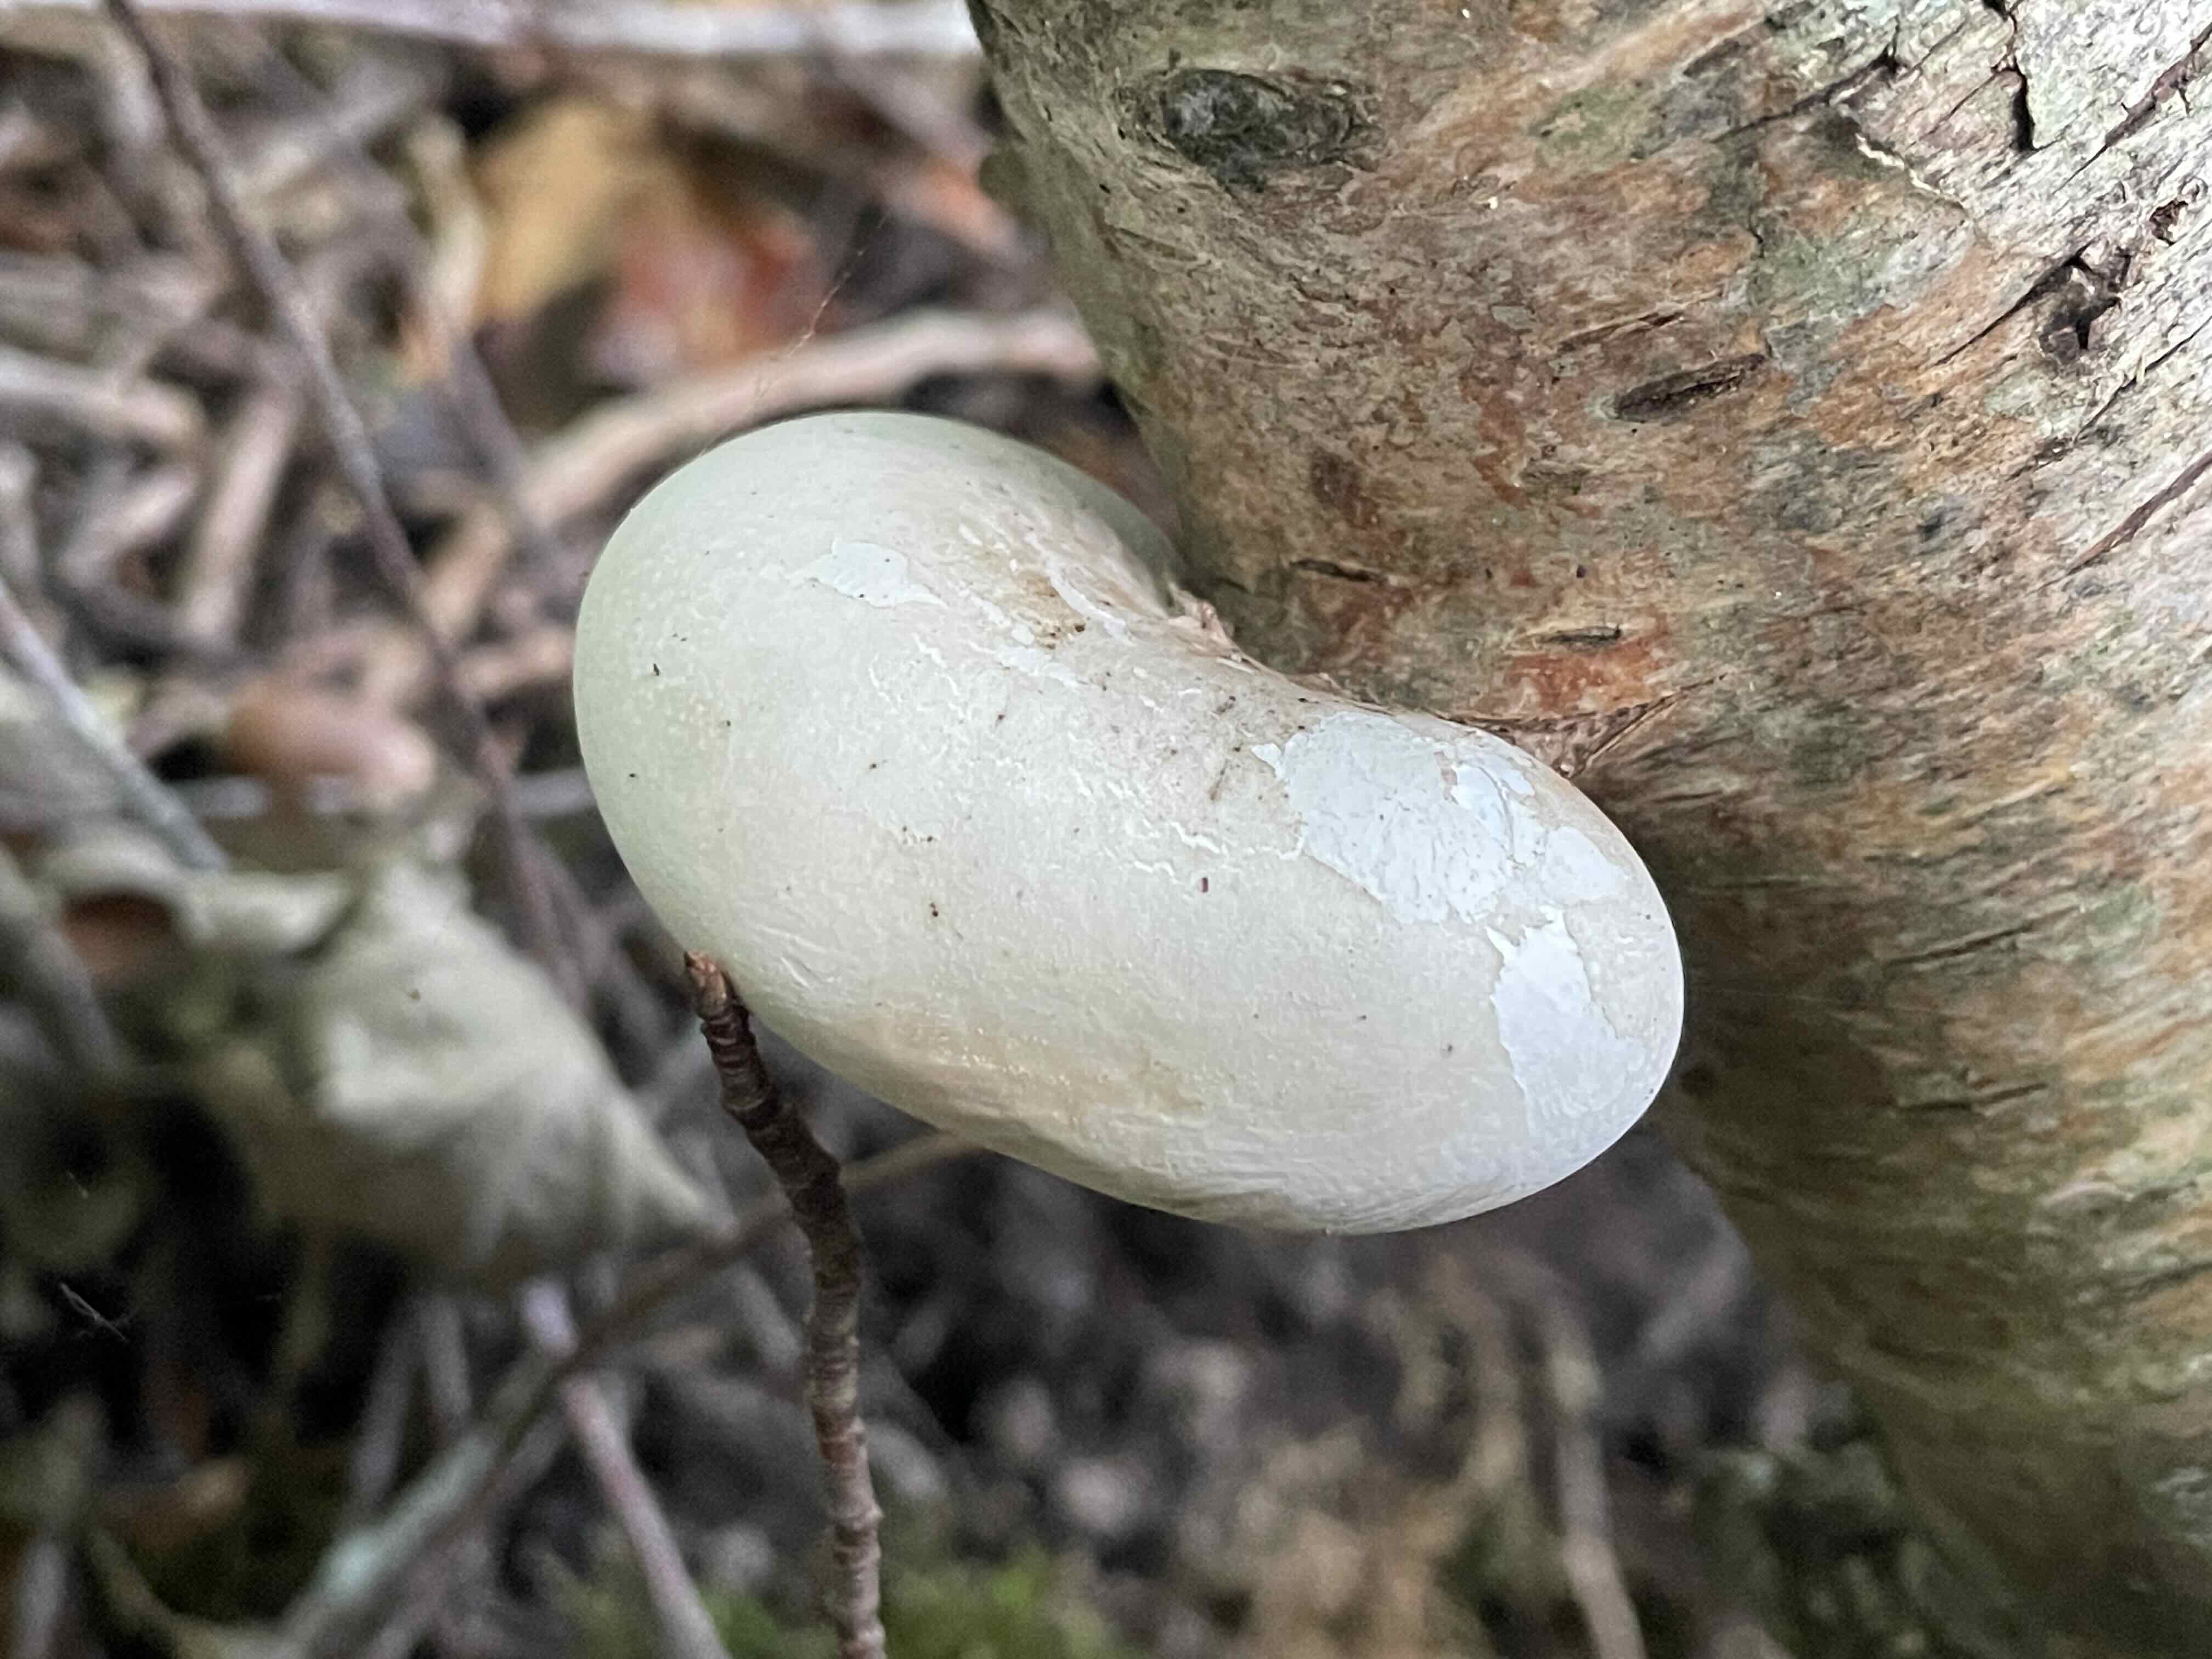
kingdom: Fungi
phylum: Basidiomycota
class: Agaricomycetes
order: Polyporales
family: Fomitopsidaceae
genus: Fomitopsis
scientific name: Fomitopsis betulina
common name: birkeporesvamp
